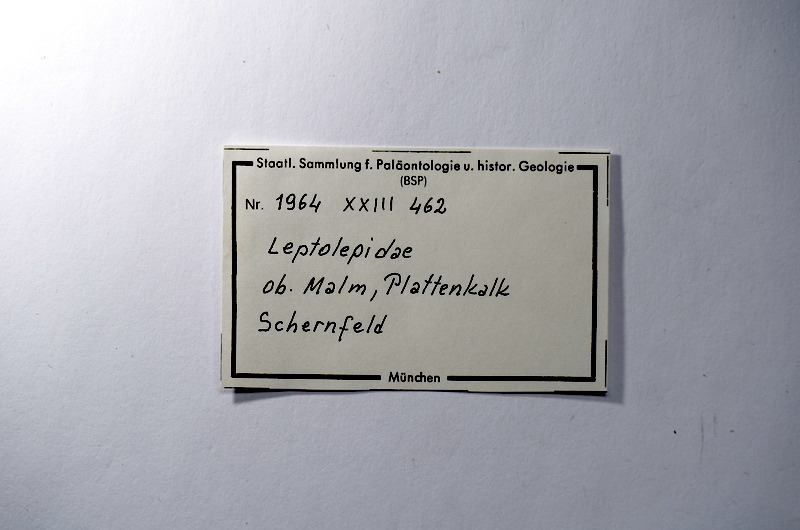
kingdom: Animalia
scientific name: Animalia
